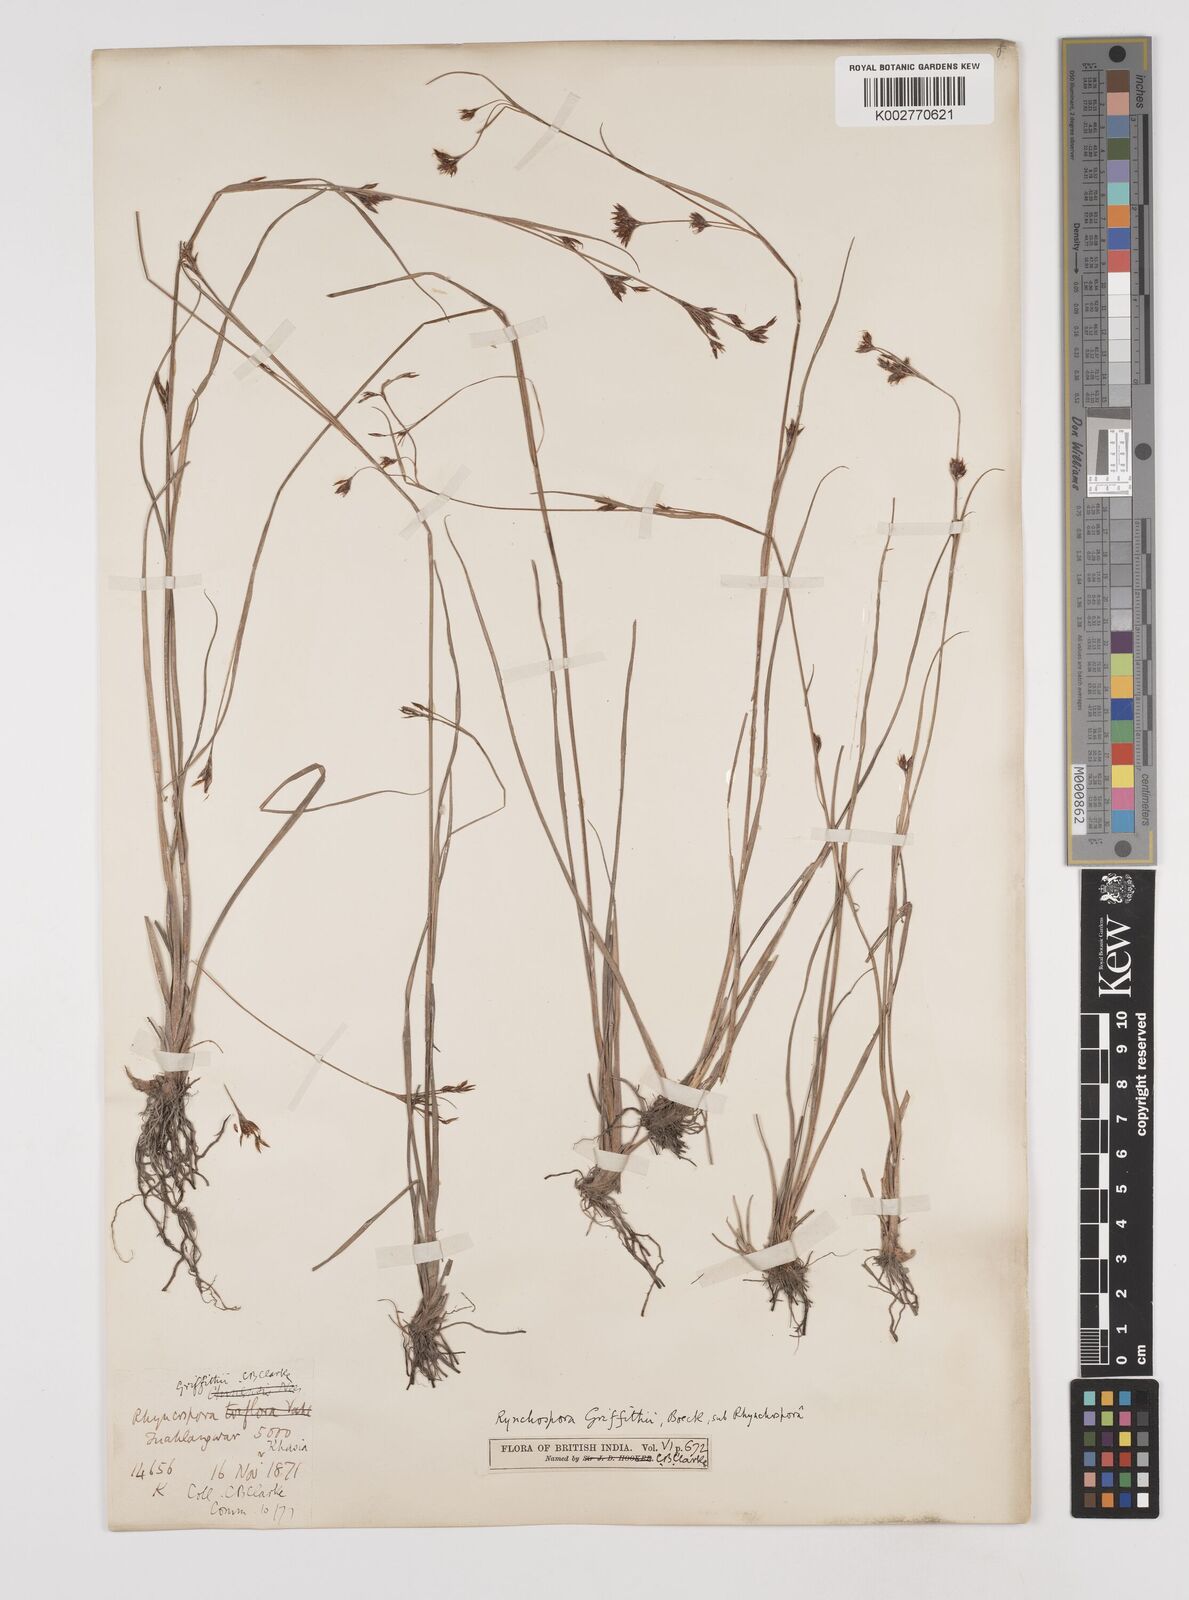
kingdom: Plantae
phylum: Tracheophyta
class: Liliopsida
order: Poales
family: Cyperaceae
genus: Rhynchospora
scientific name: Rhynchospora brownii
